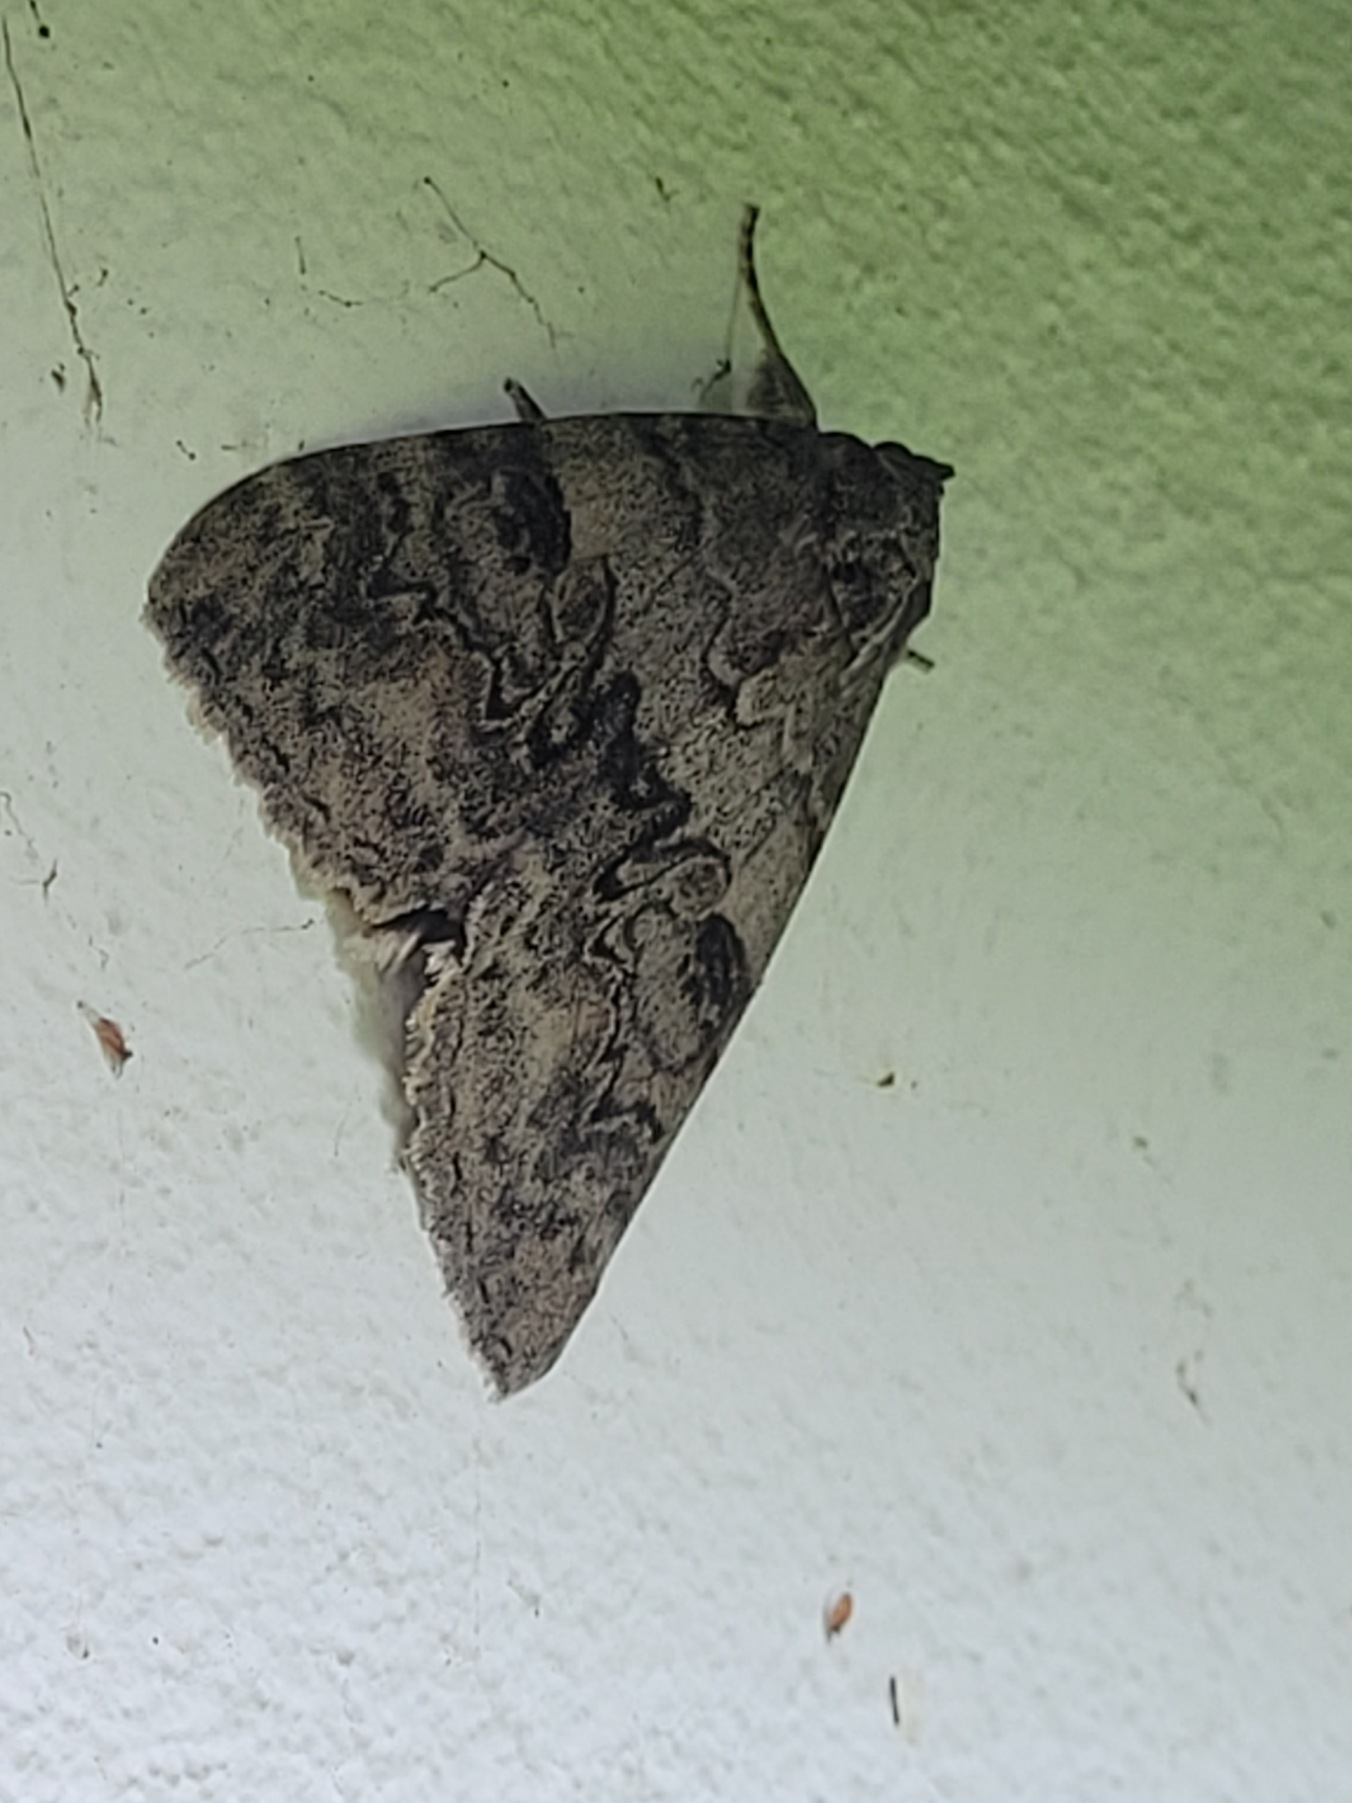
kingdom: Animalia
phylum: Arthropoda
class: Insecta
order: Lepidoptera
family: Erebidae
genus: Catocala
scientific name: Catocala nupta
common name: Rødt ordensbånd
